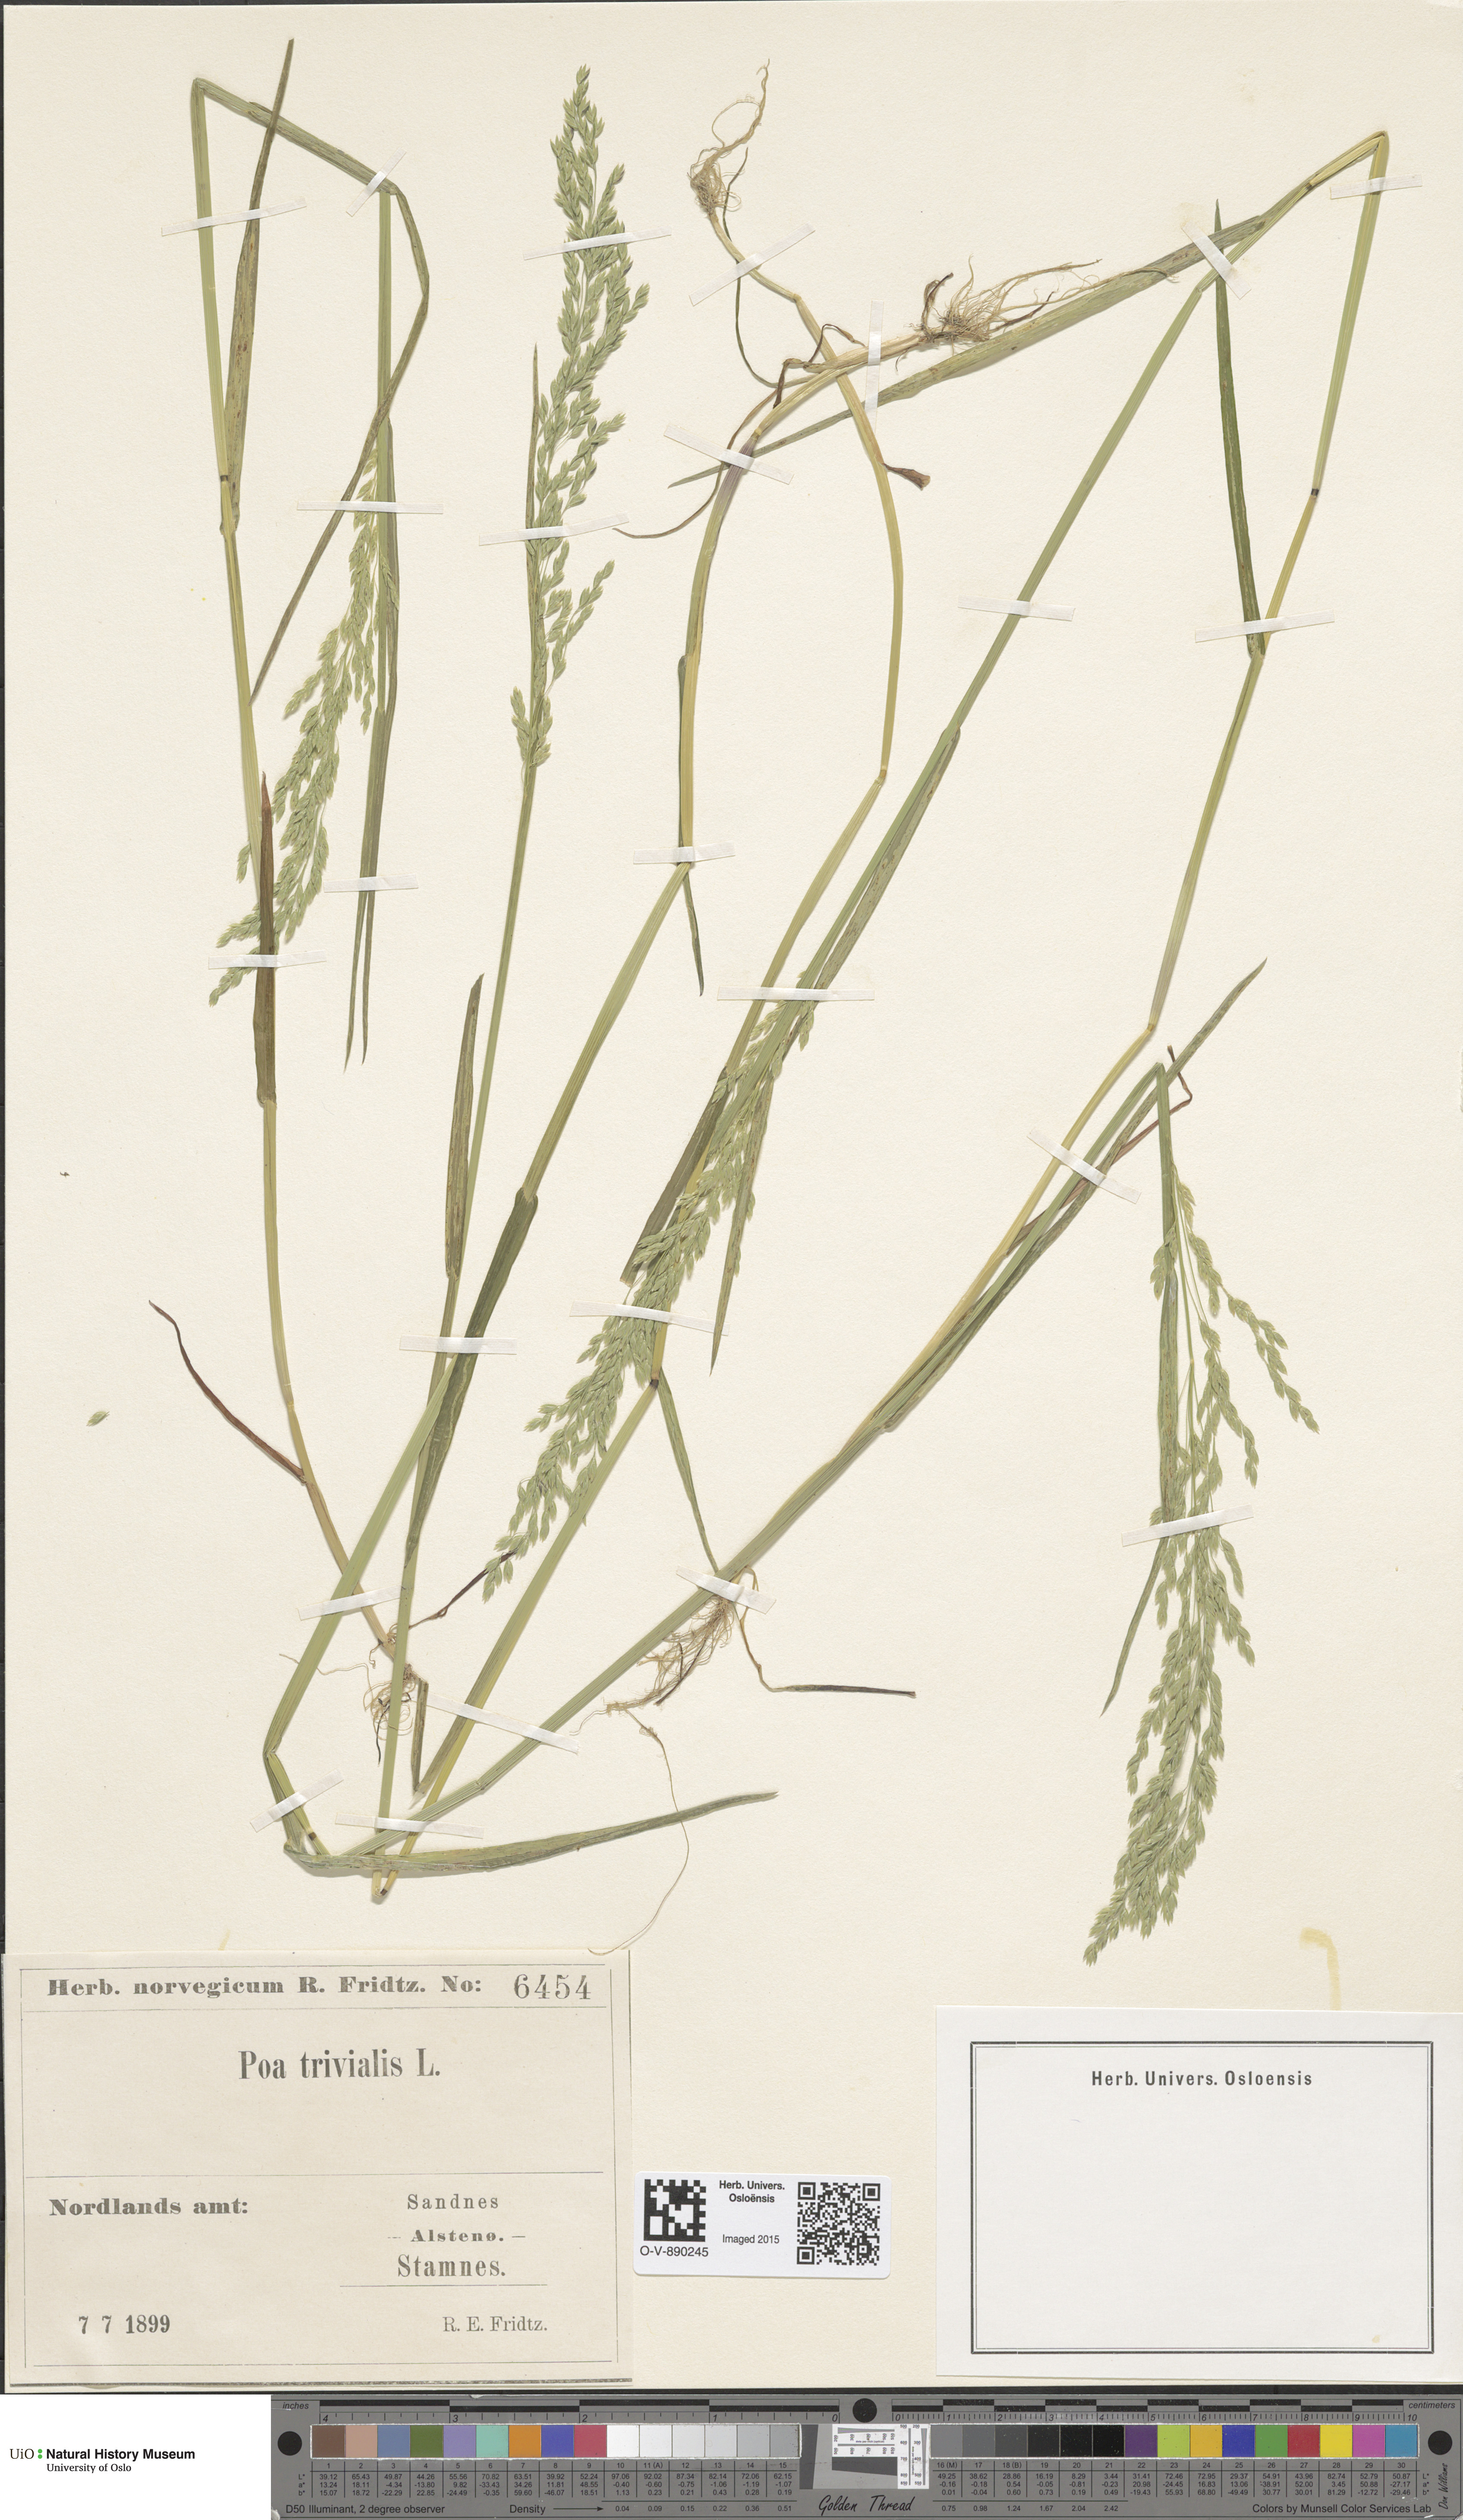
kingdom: Plantae
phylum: Tracheophyta
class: Liliopsida
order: Poales
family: Poaceae
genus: Poa
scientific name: Poa trivialis
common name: Rough bluegrass
